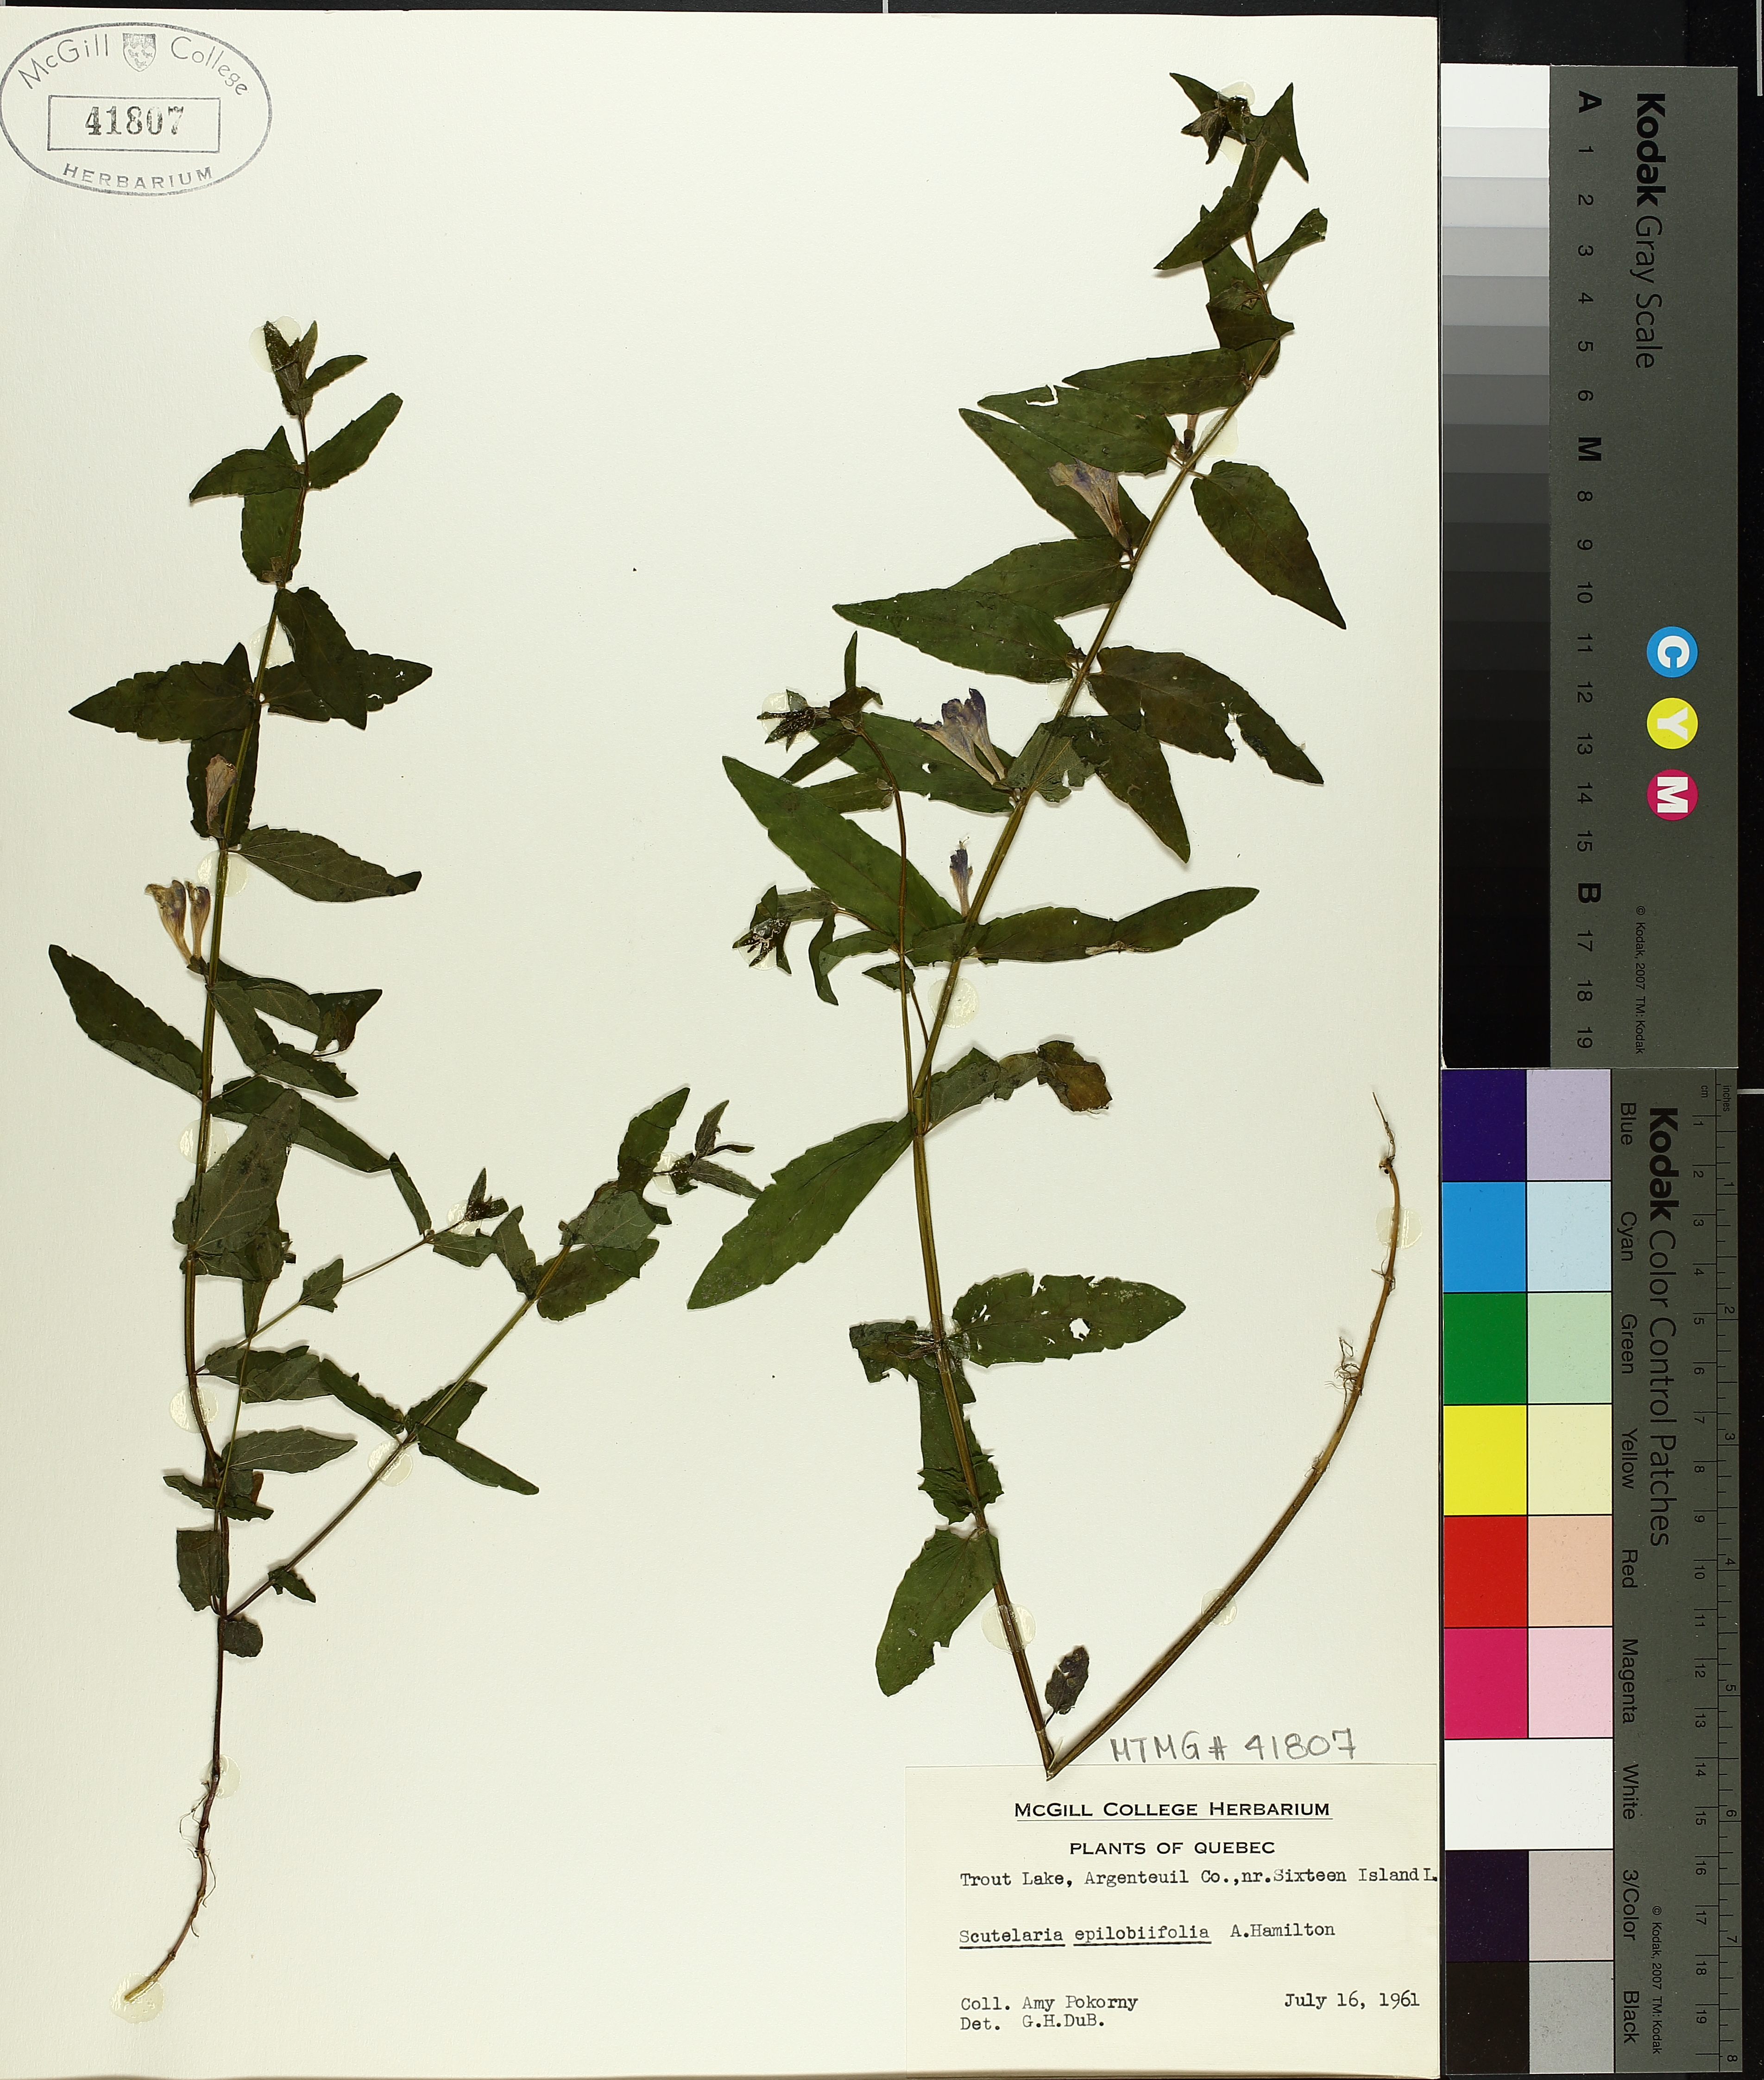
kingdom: Plantae
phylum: Tracheophyta
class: Magnoliopsida
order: Lamiales
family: Lamiaceae
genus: Scutellaria
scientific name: Scutellaria galericulata
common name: Skullcap
